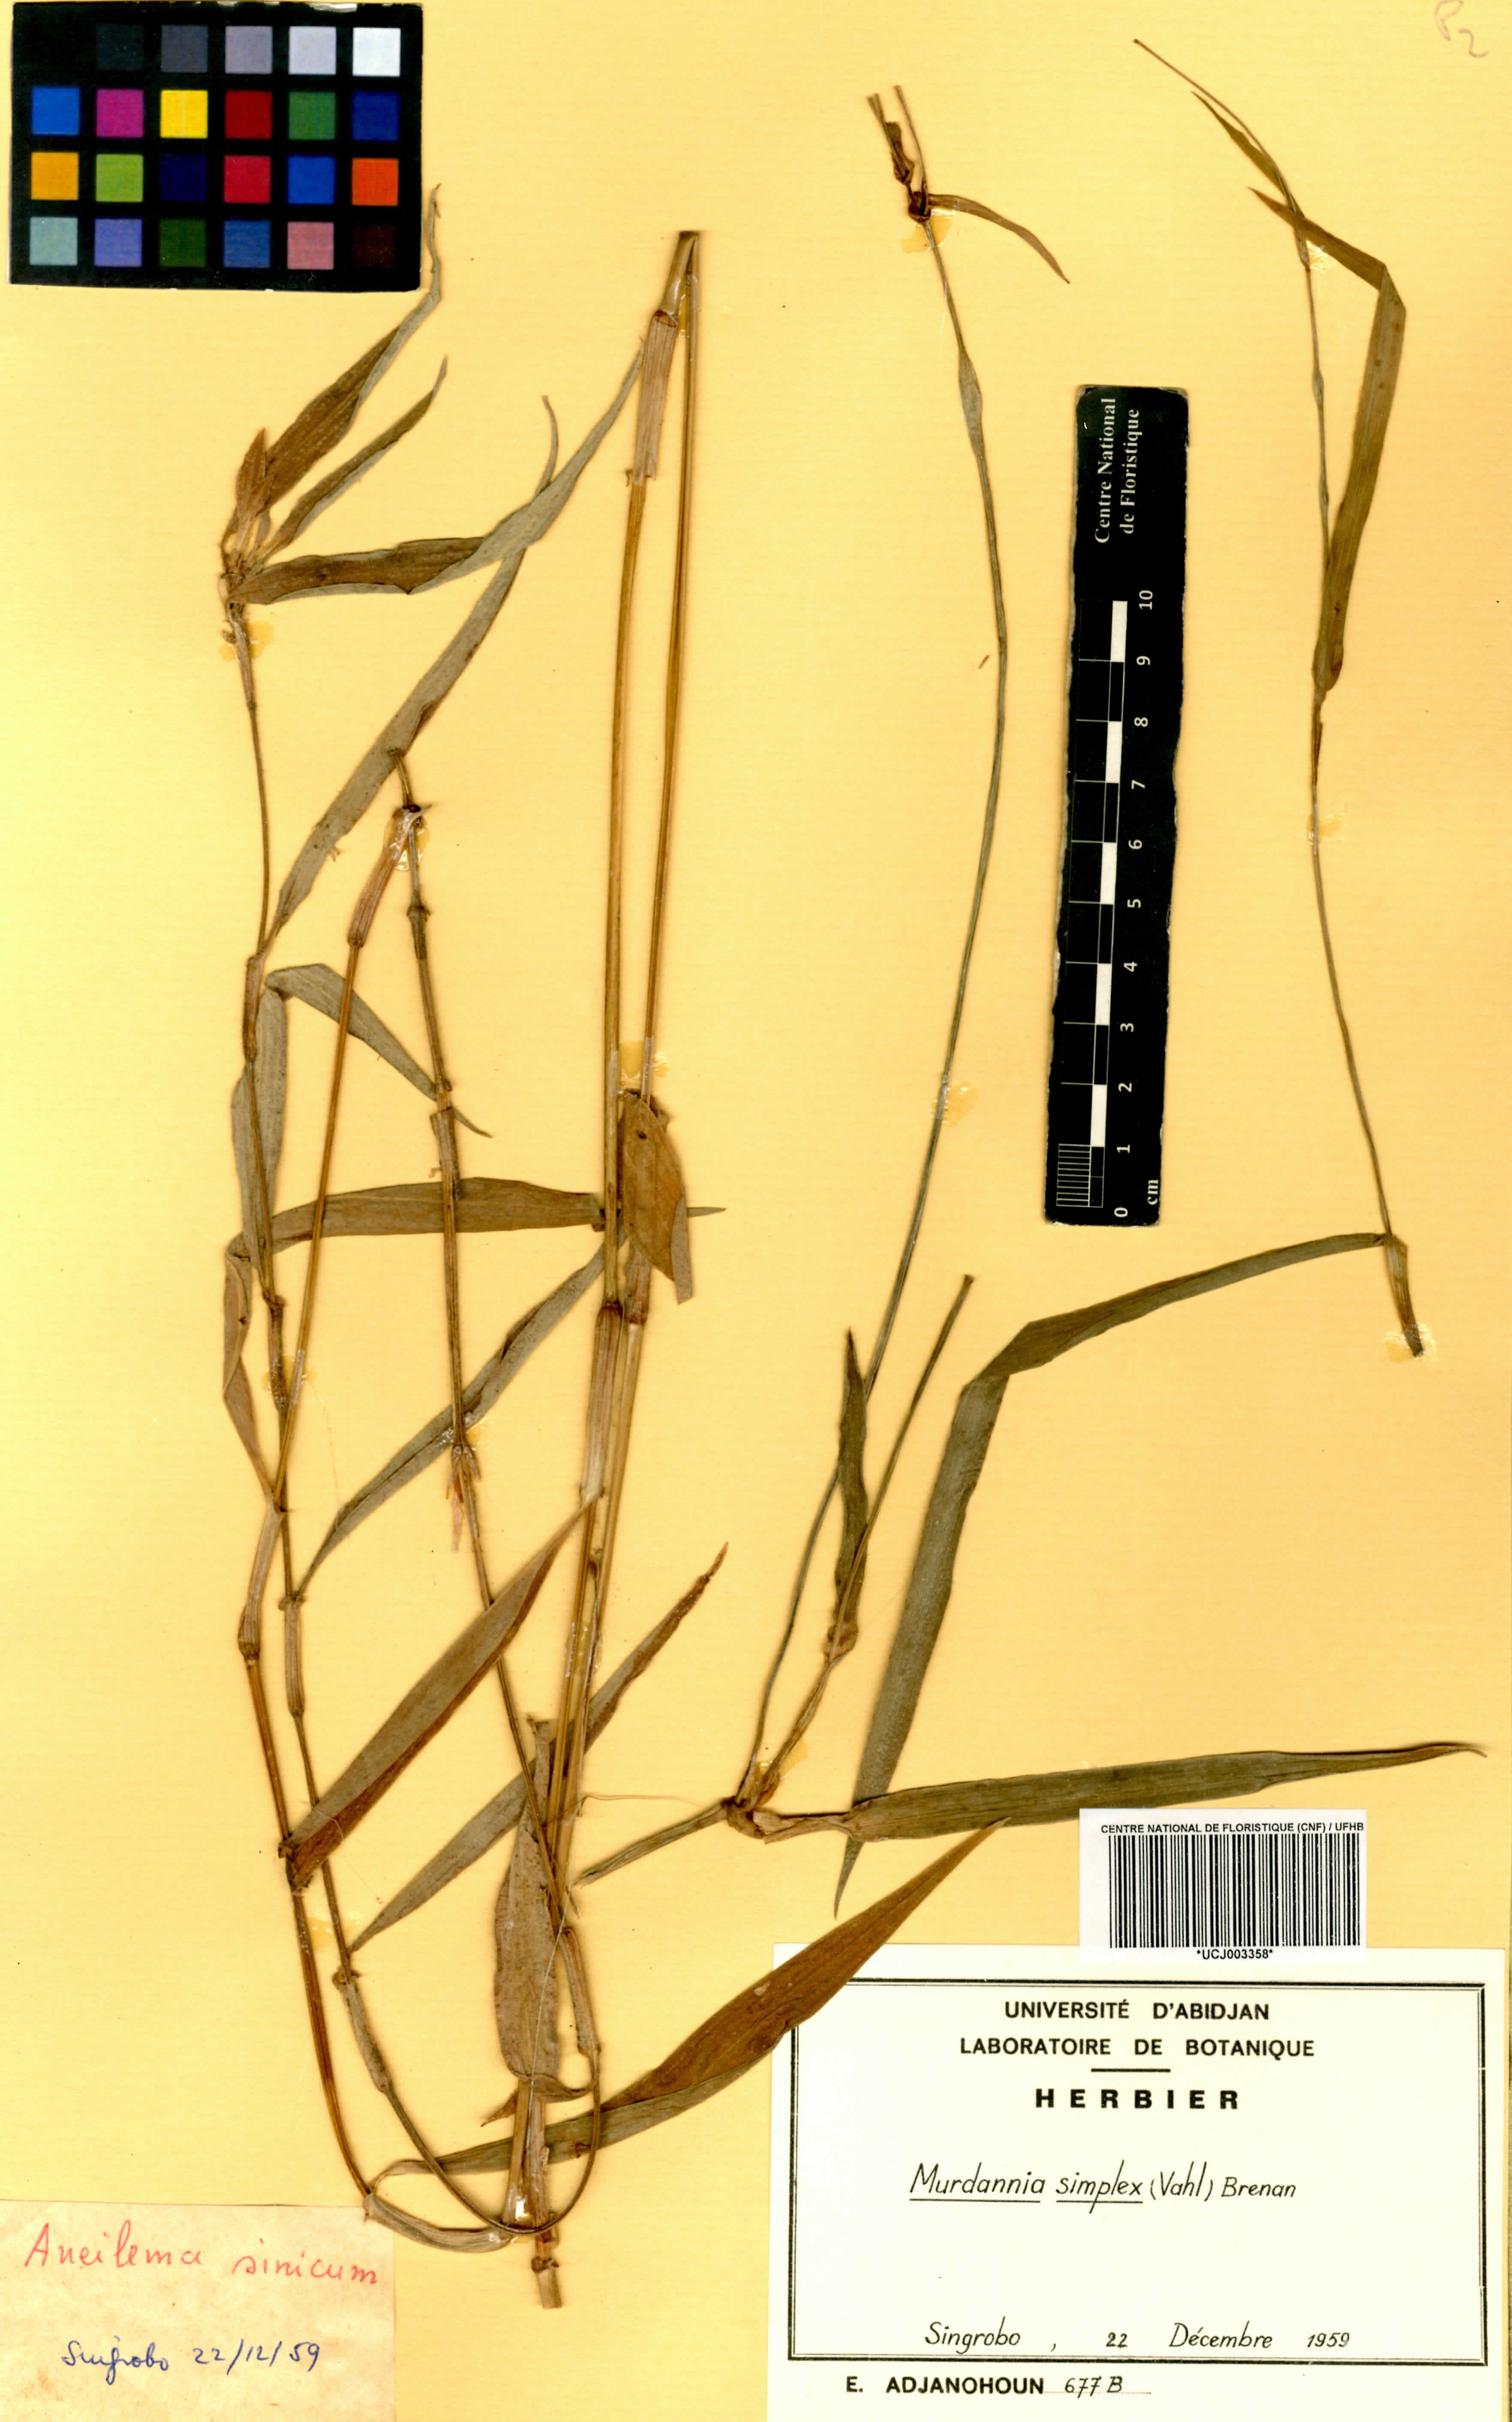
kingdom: Plantae
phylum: Tracheophyta
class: Liliopsida
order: Commelinales
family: Commelinaceae
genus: Murdannia
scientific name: Murdannia simplex
